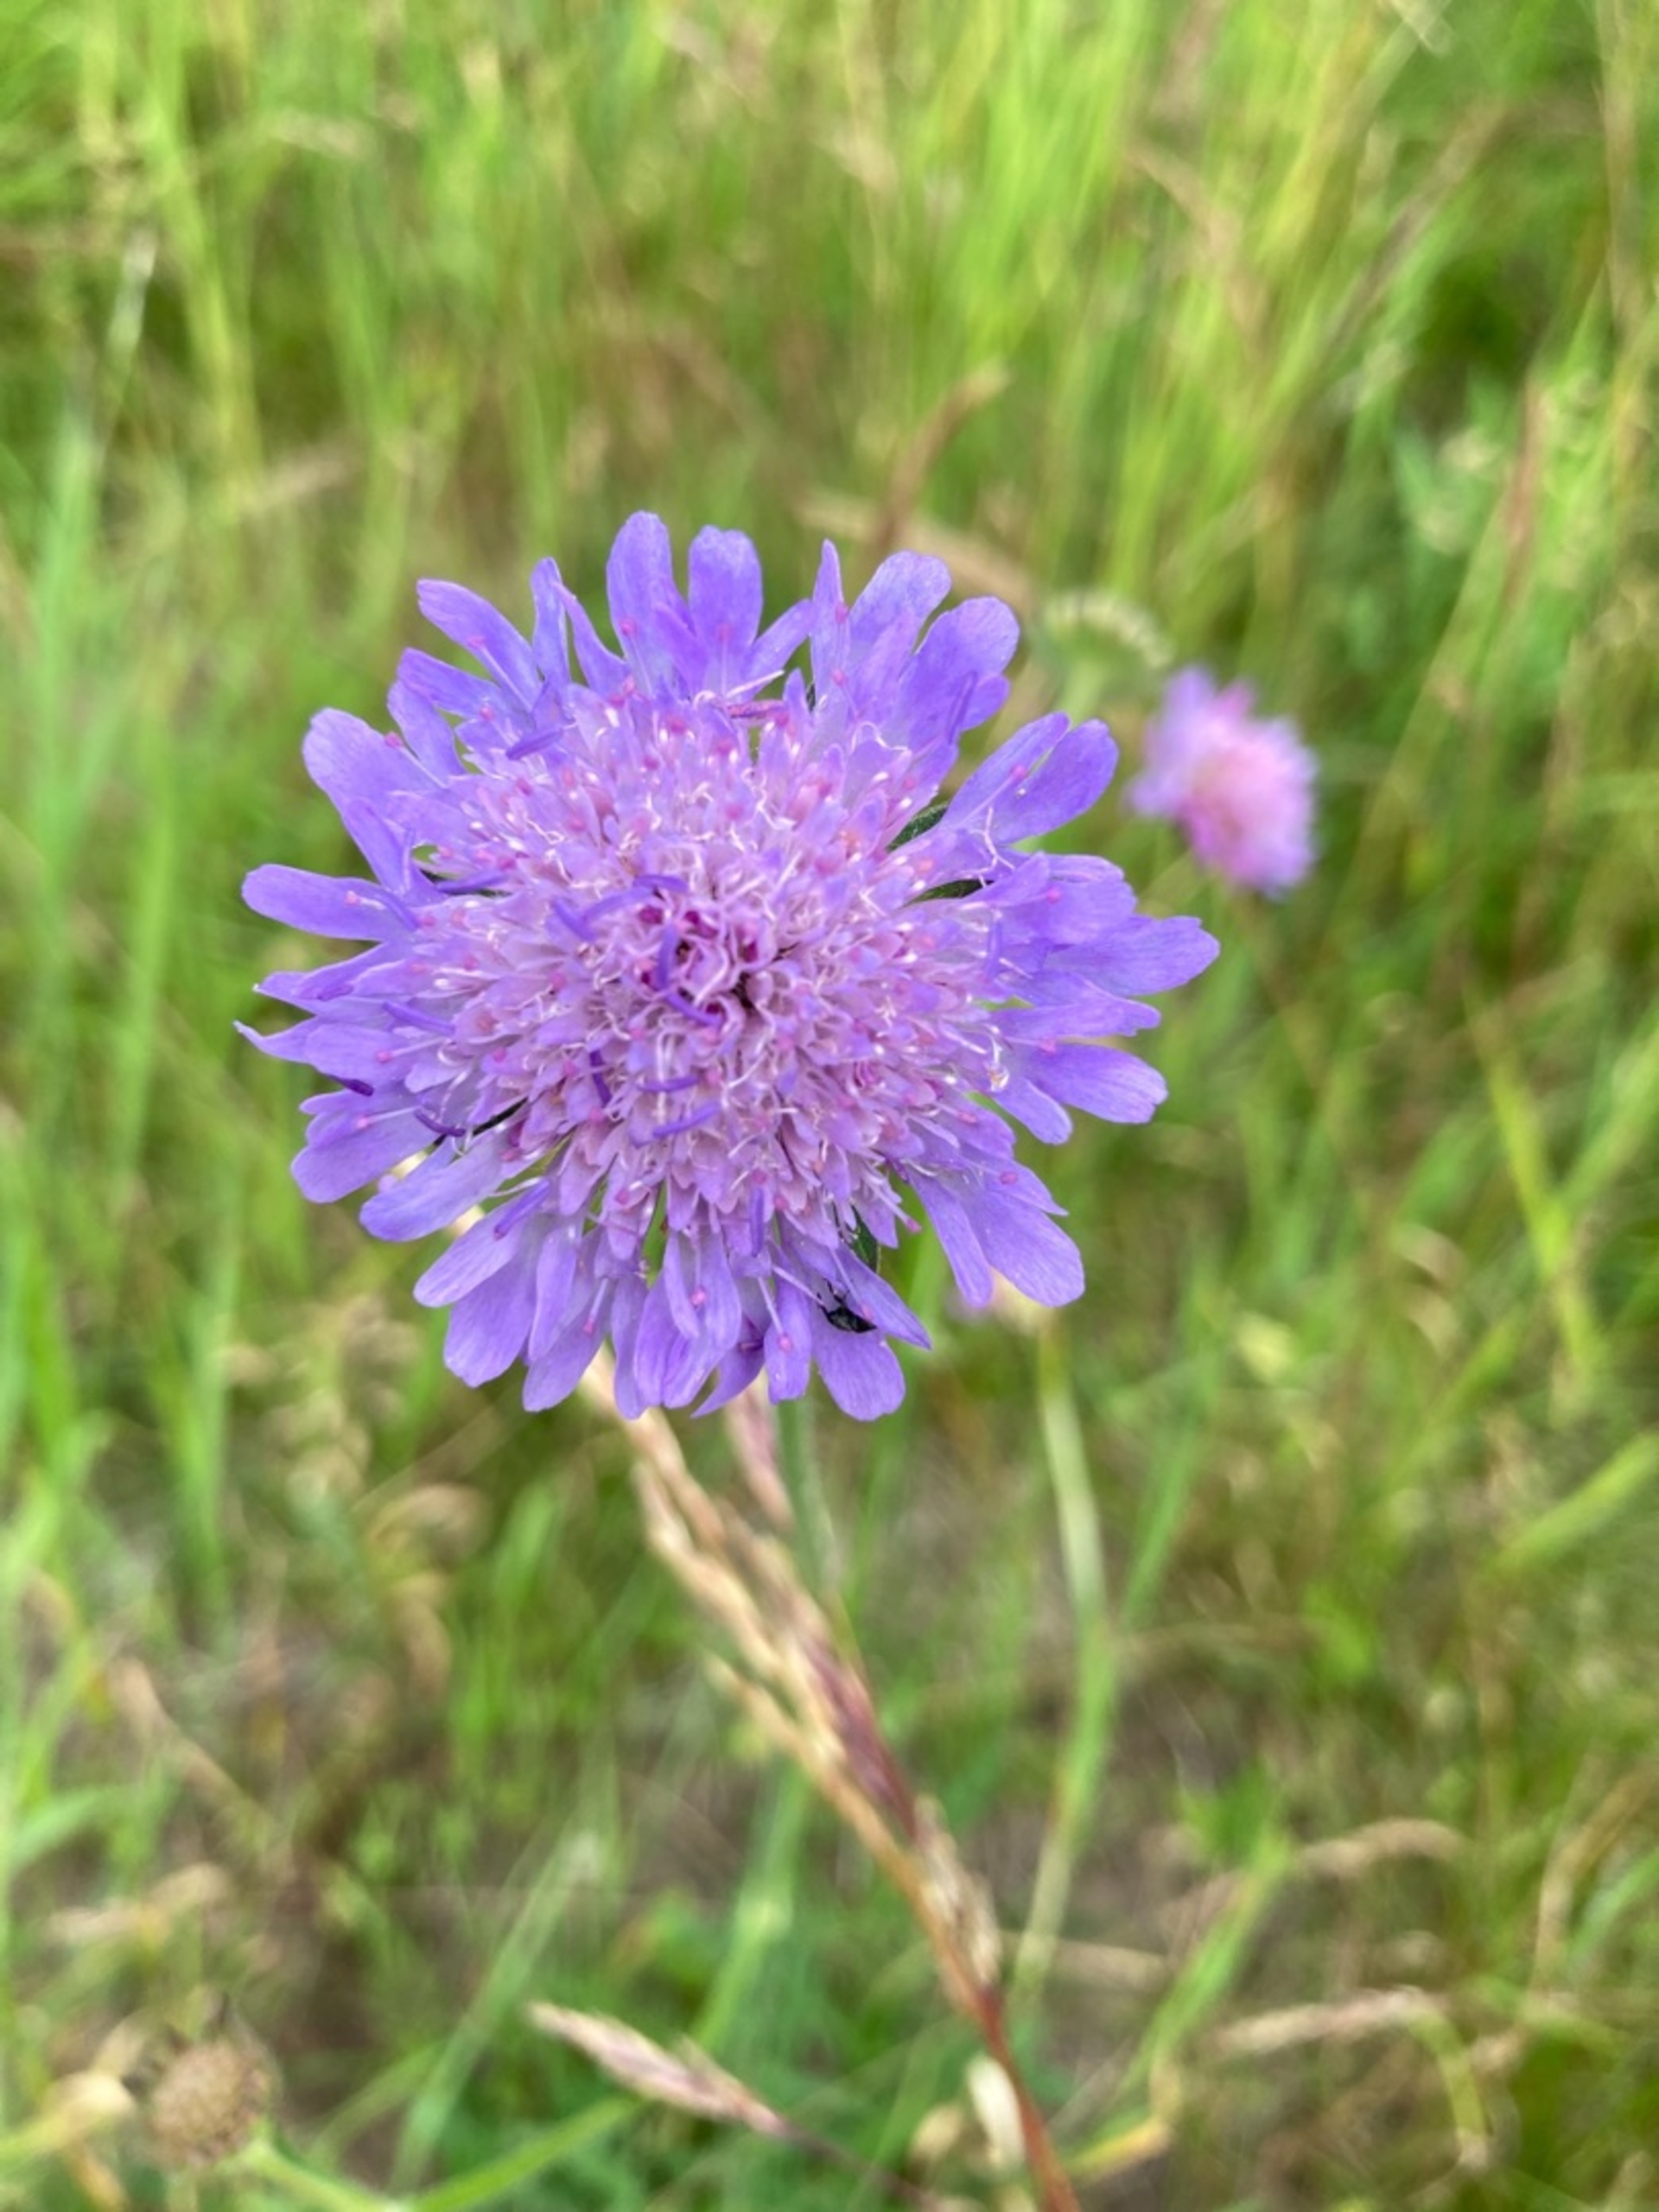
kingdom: Plantae
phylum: Tracheophyta
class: Magnoliopsida
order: Dipsacales
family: Caprifoliaceae
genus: Knautia
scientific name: Knautia arvensis
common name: Blåhat
